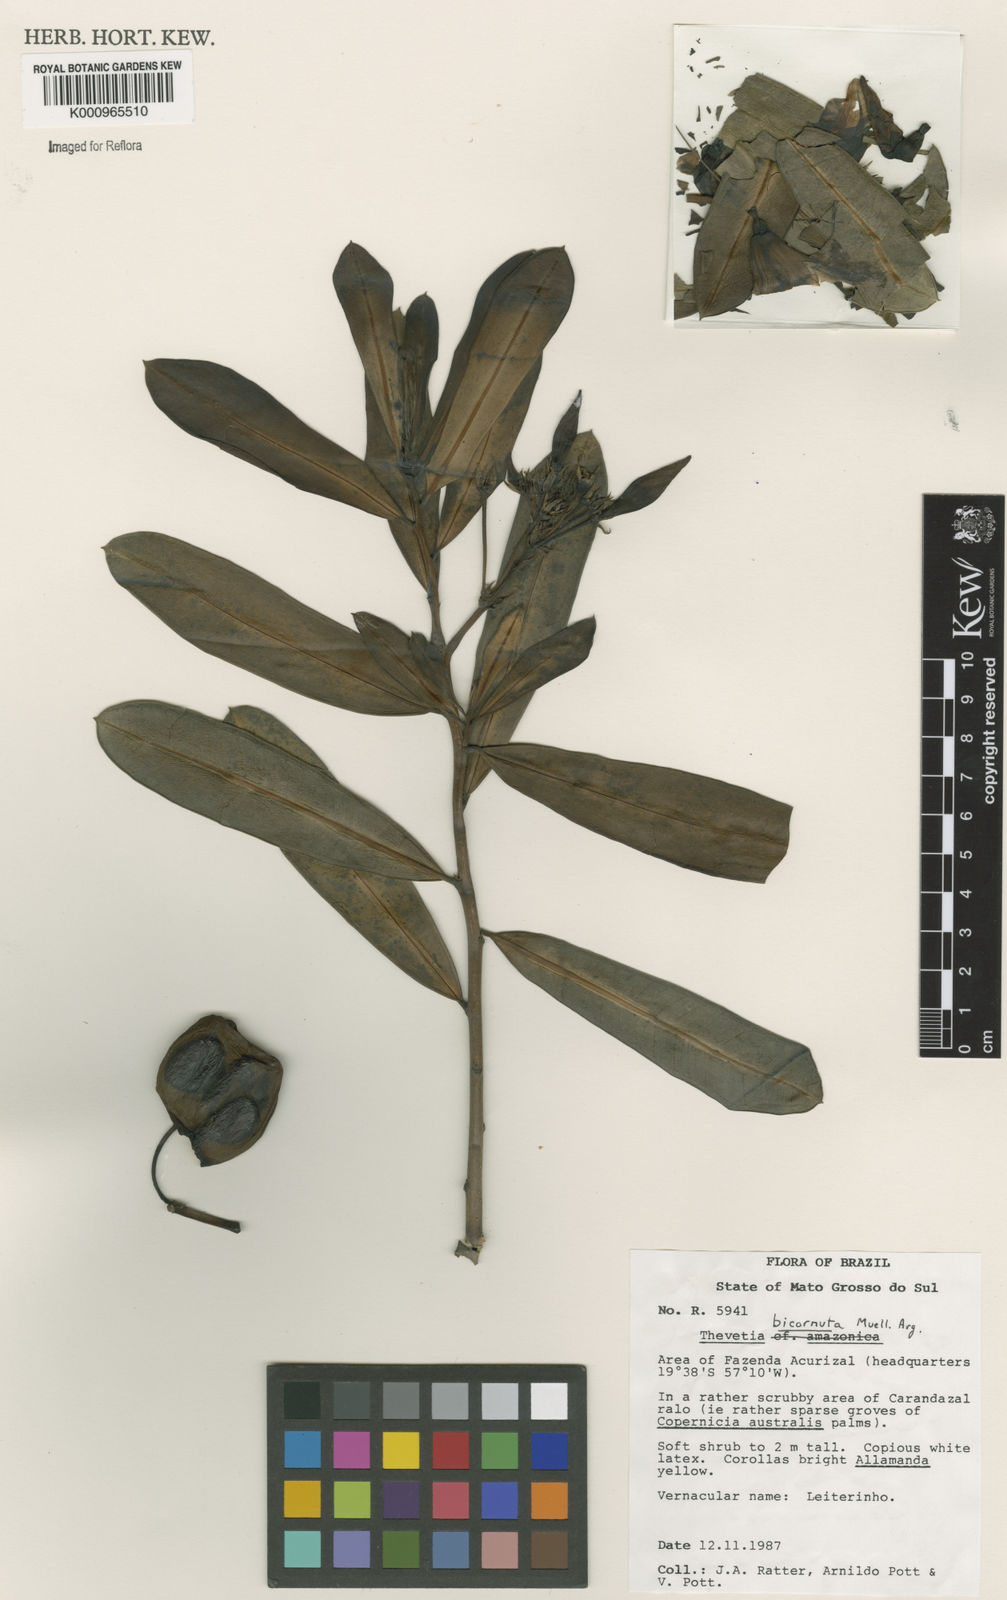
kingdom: Plantae
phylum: Tracheophyta
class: Magnoliopsida
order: Gentianales
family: Apocynaceae
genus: Thevetia
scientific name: Thevetia
